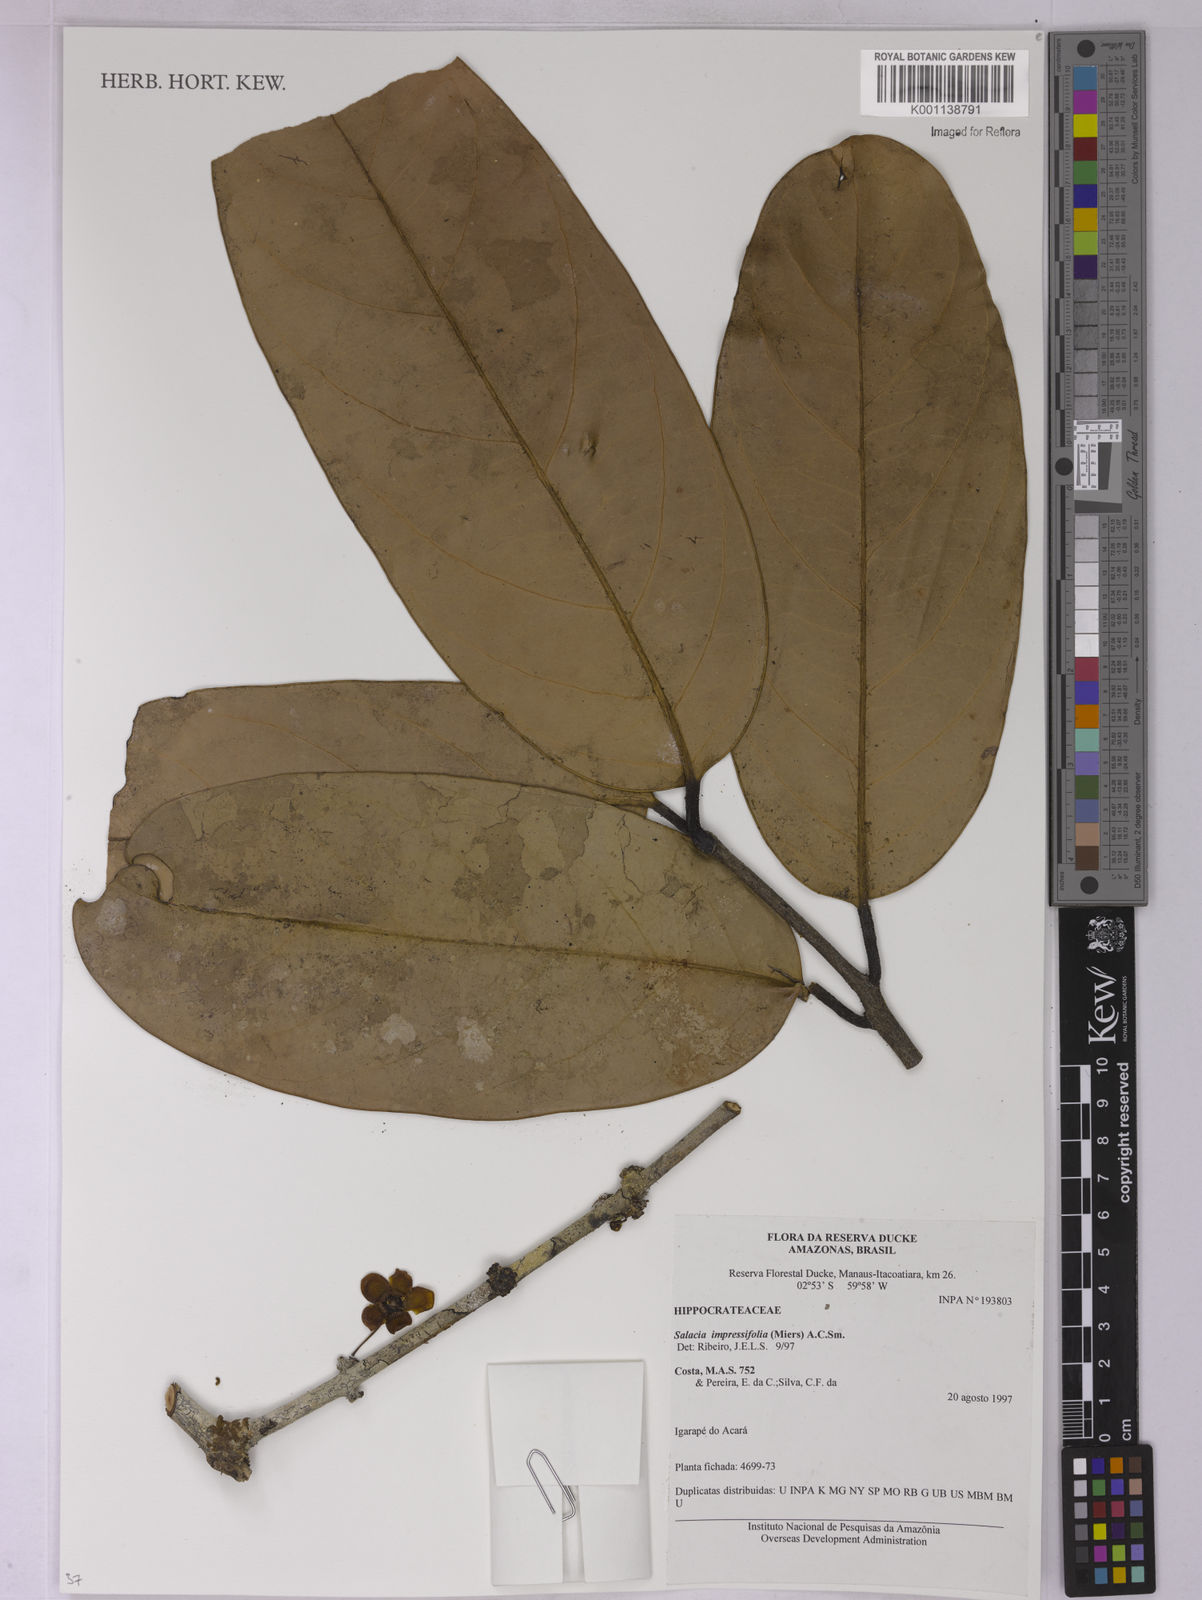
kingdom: Plantae
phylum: Tracheophyta
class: Magnoliopsida
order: Celastrales
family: Celastraceae
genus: Salacia
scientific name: Salacia impressifolia
